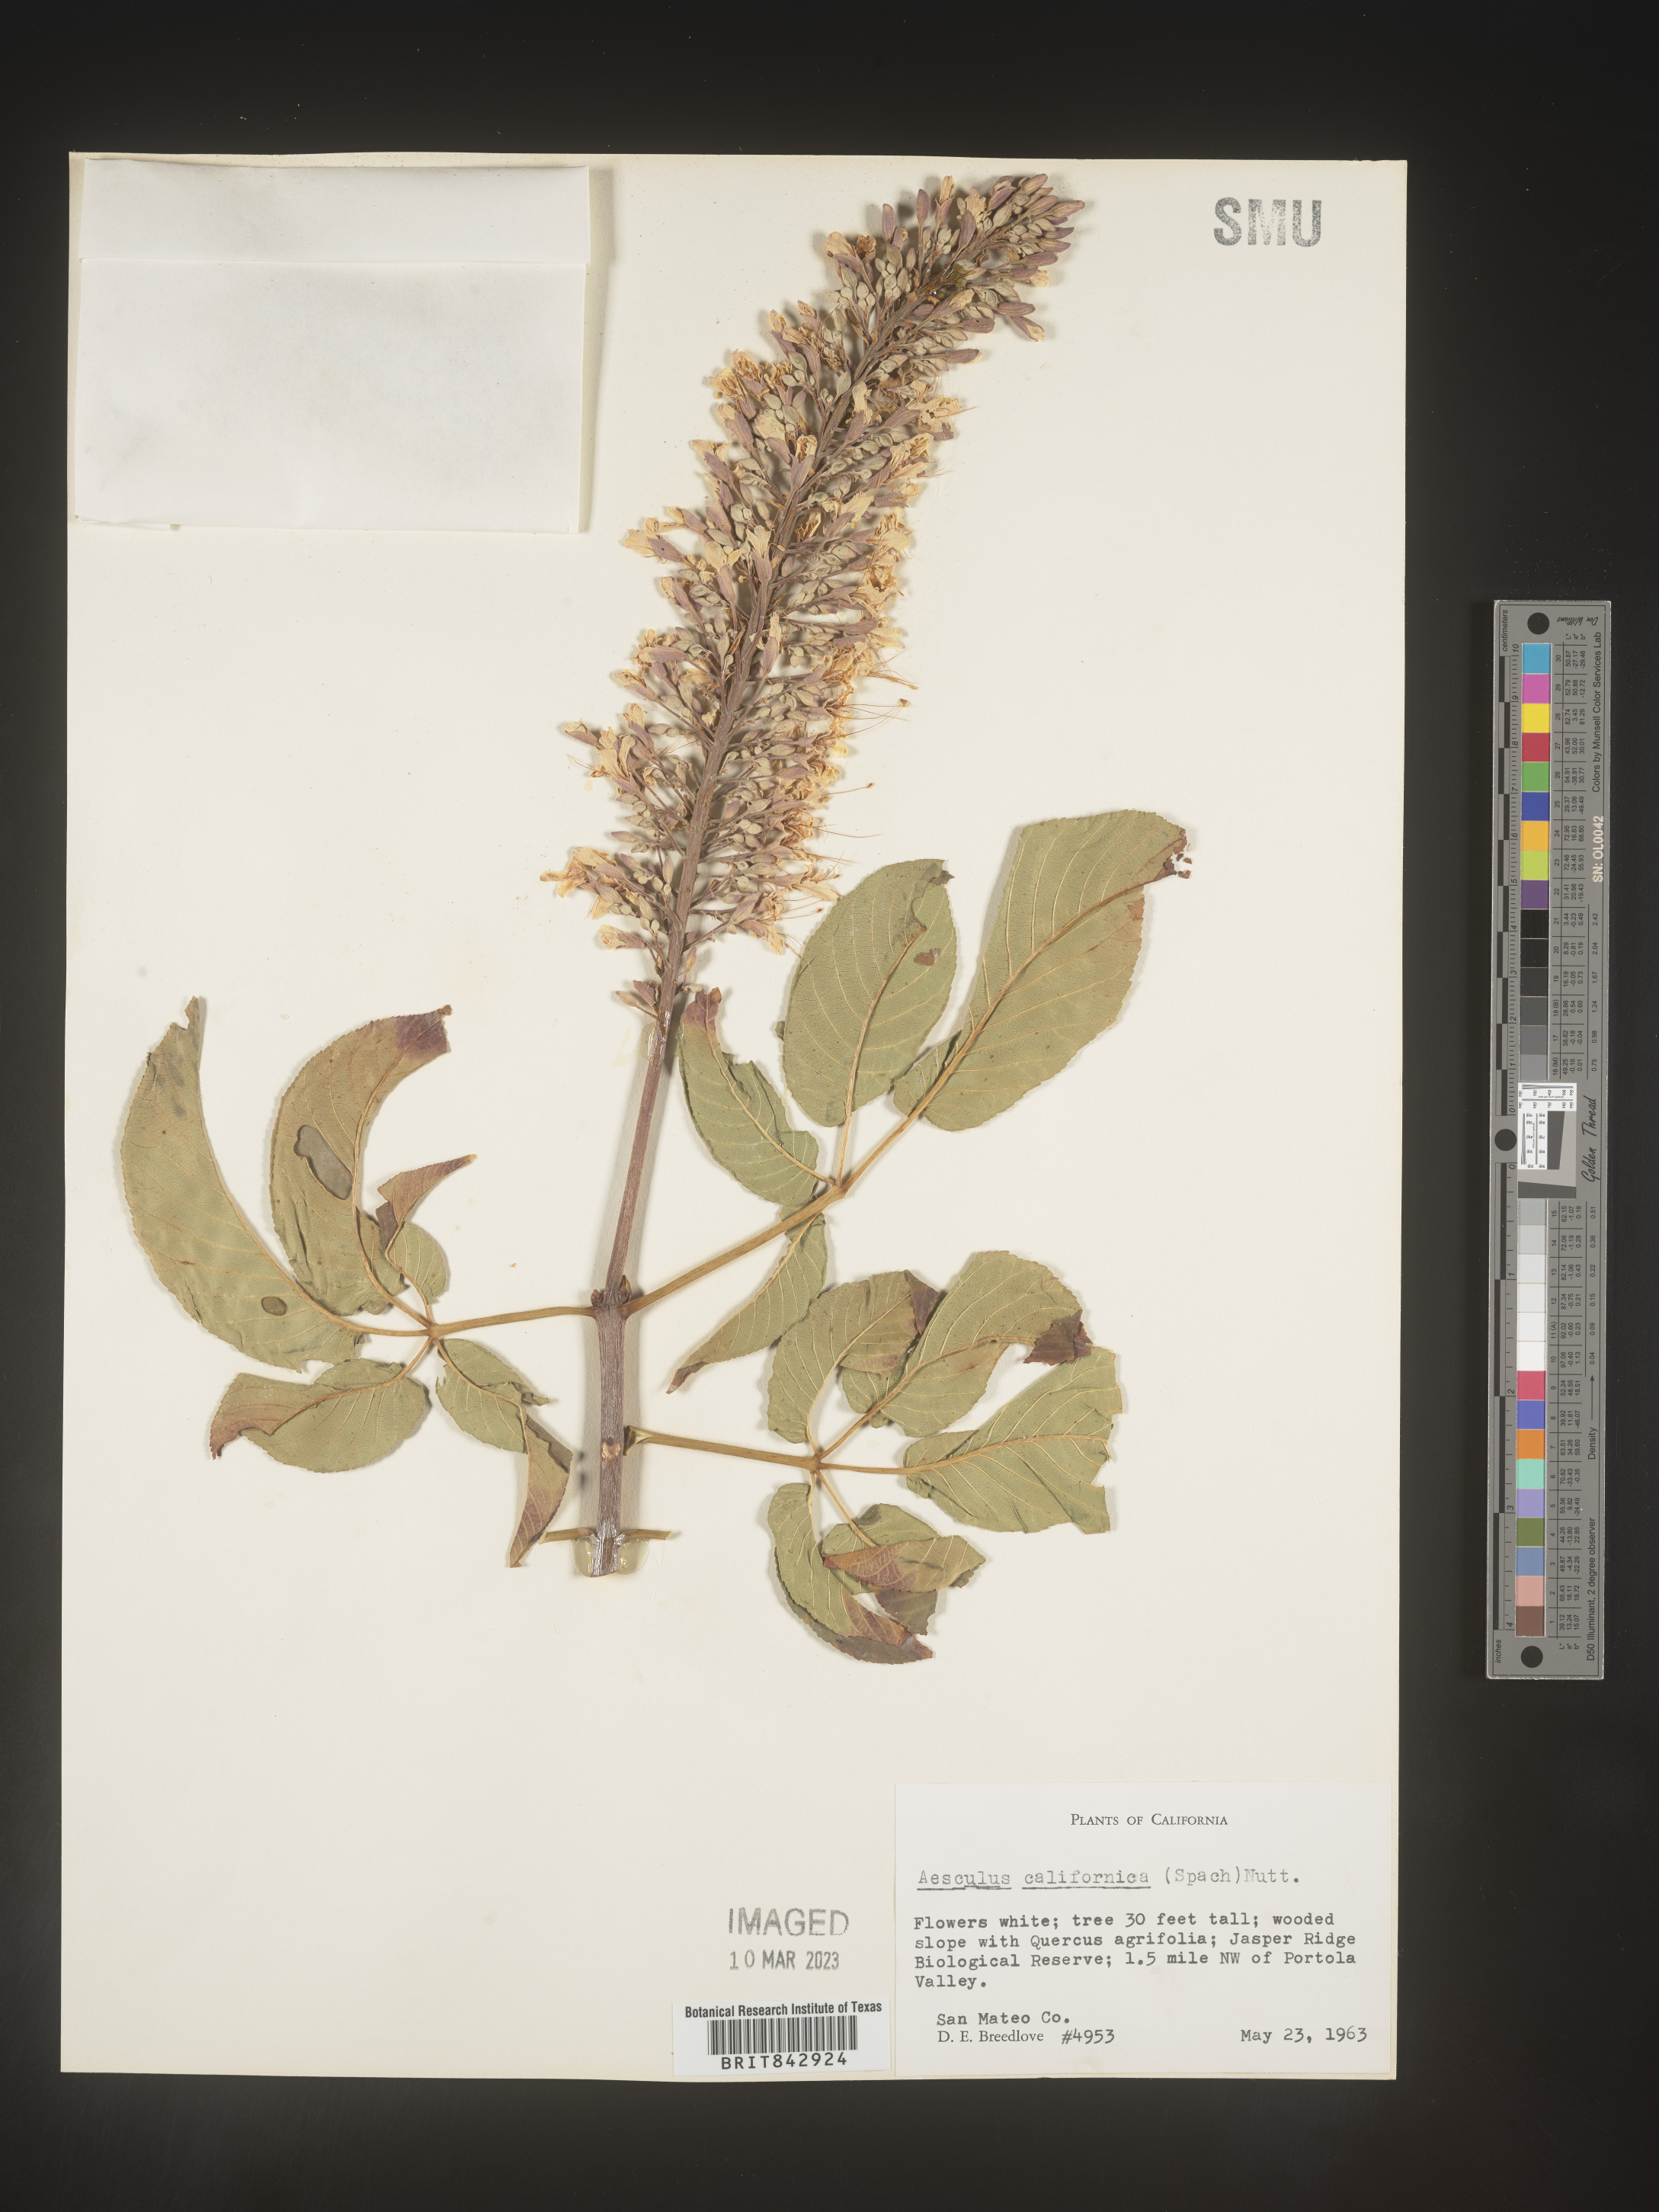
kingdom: Plantae
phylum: Tracheophyta
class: Magnoliopsida
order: Sapindales
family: Sapindaceae
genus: Aesculus
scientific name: Aesculus
